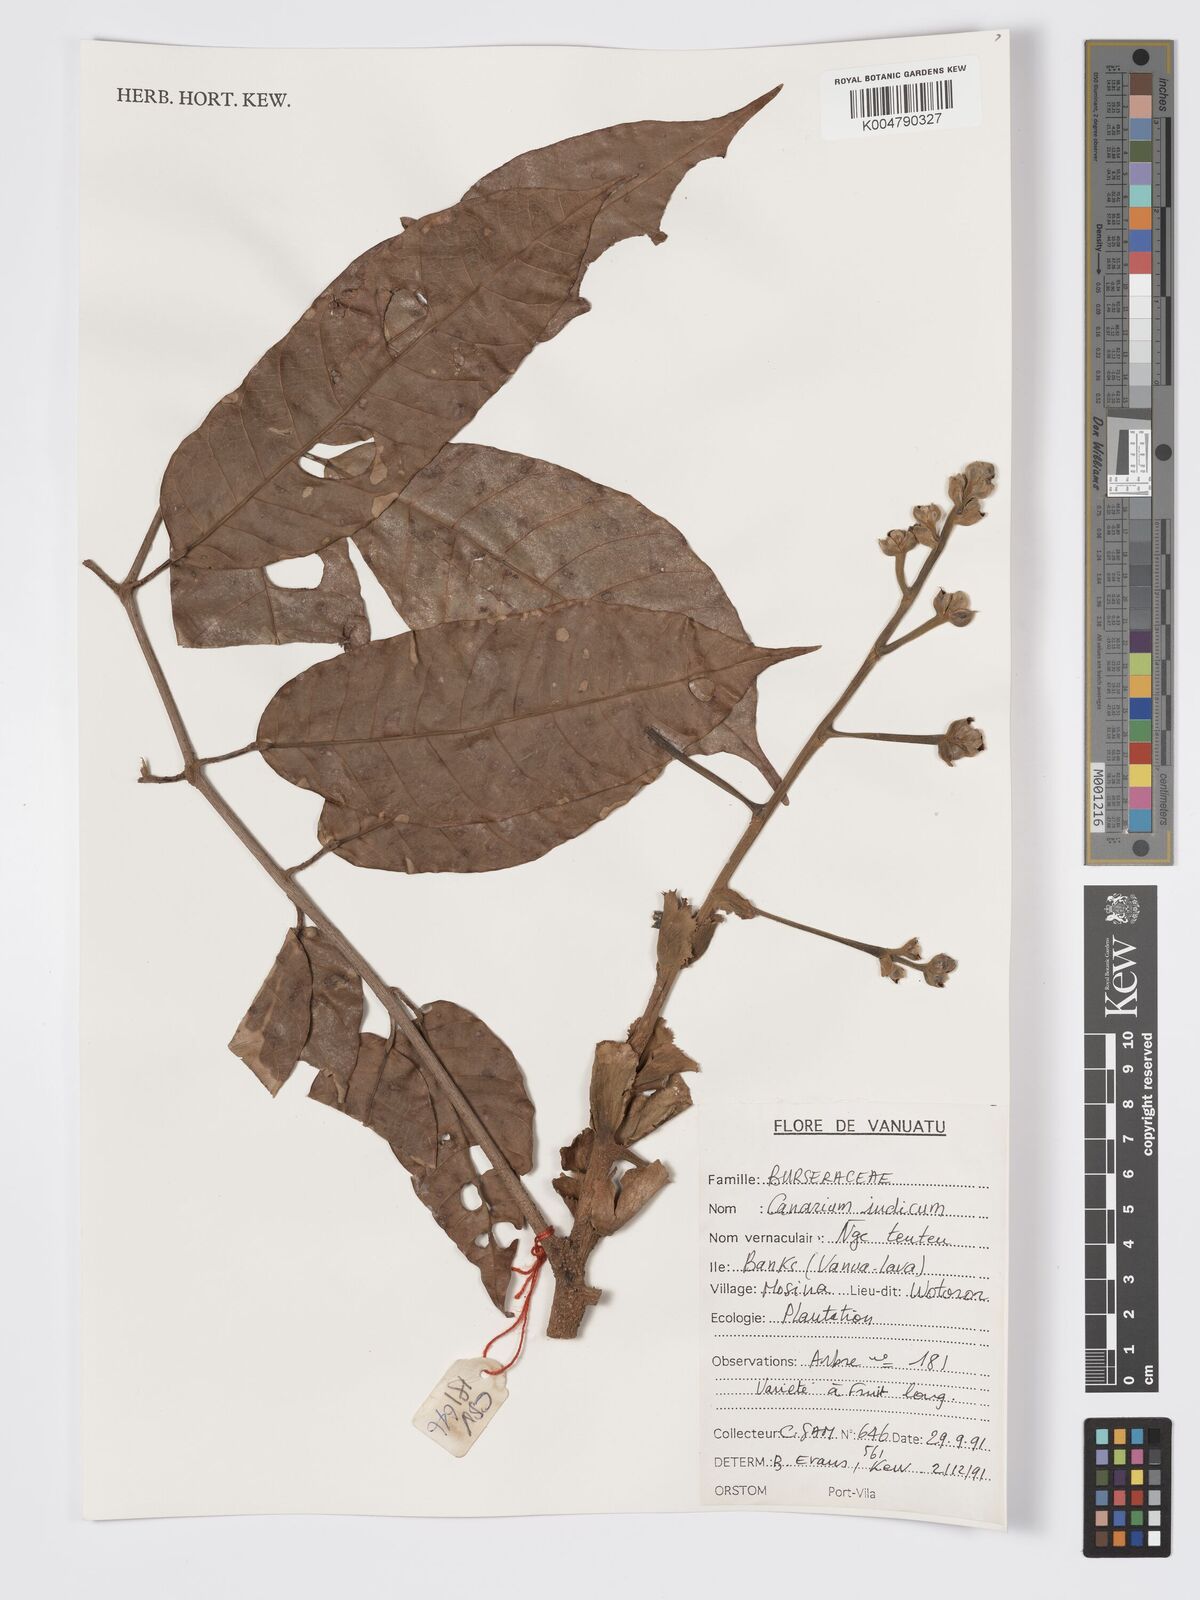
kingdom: Plantae
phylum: Tracheophyta
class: Magnoliopsida
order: Sapindales
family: Burseraceae
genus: Canarium
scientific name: Canarium indicum
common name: Canarium-nut
